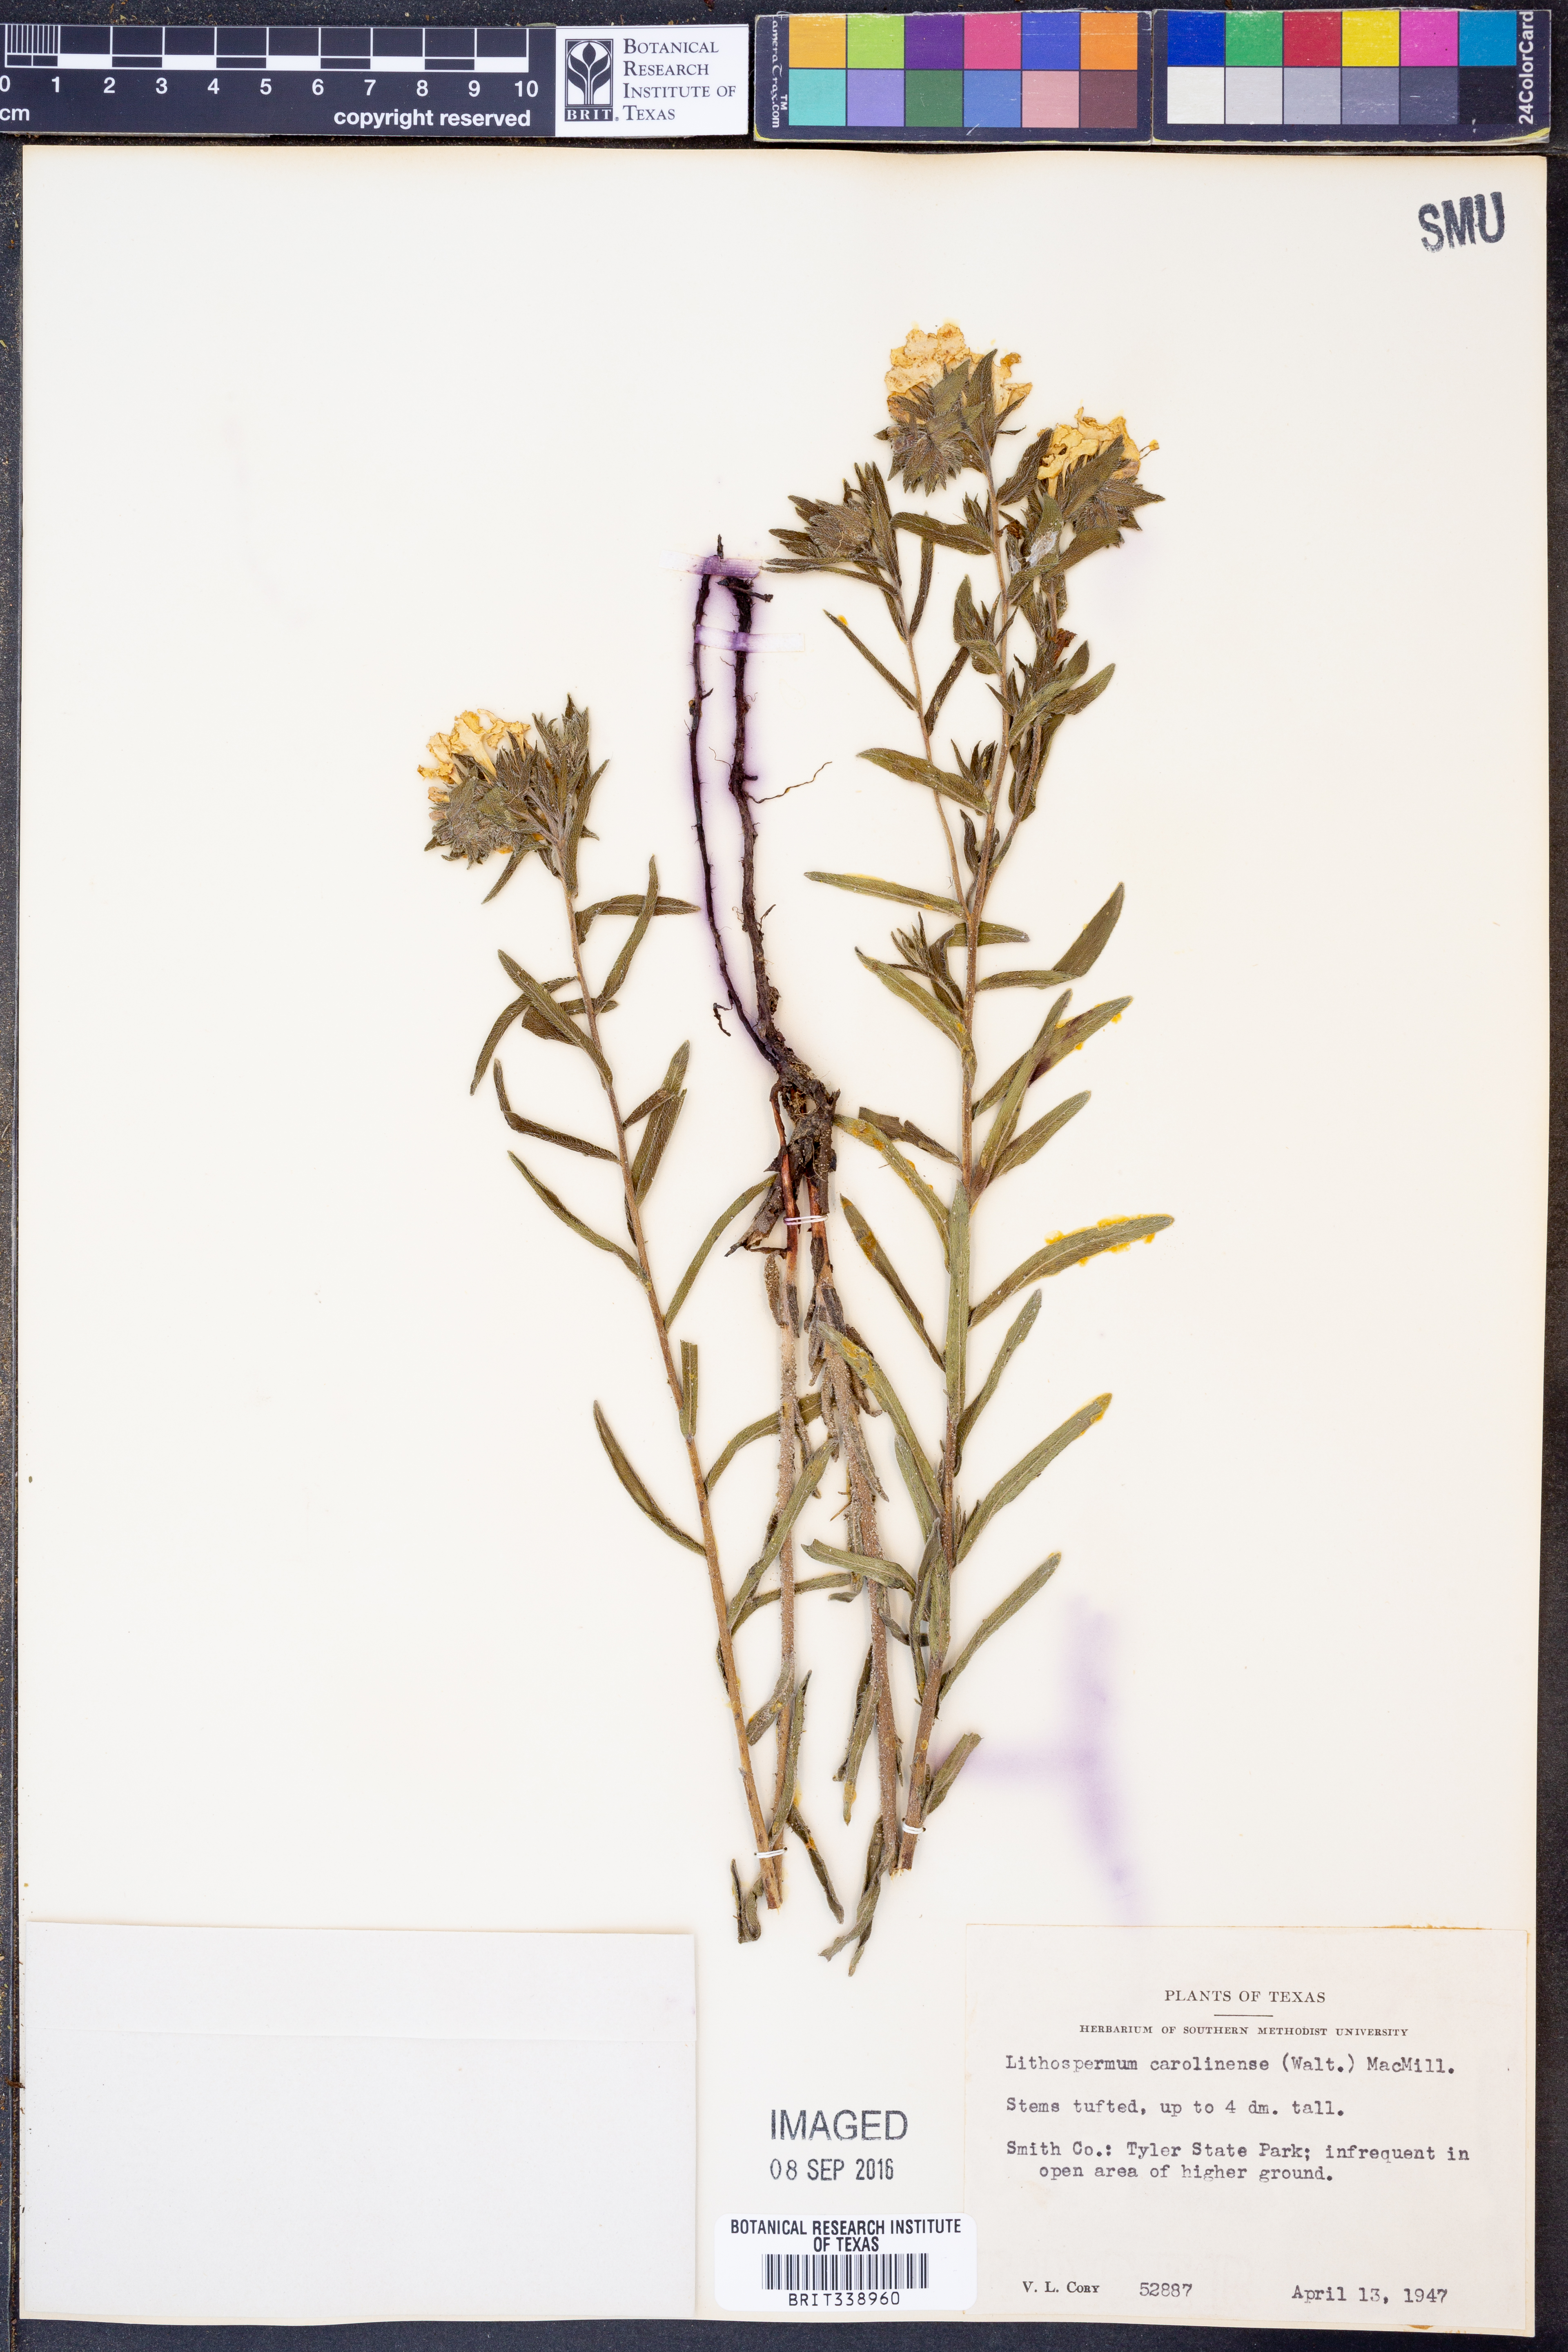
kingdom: Plantae
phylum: Tracheophyta
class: Magnoliopsida
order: Boraginales
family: Boraginaceae
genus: Lithospermum
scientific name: Lithospermum caroliniense
